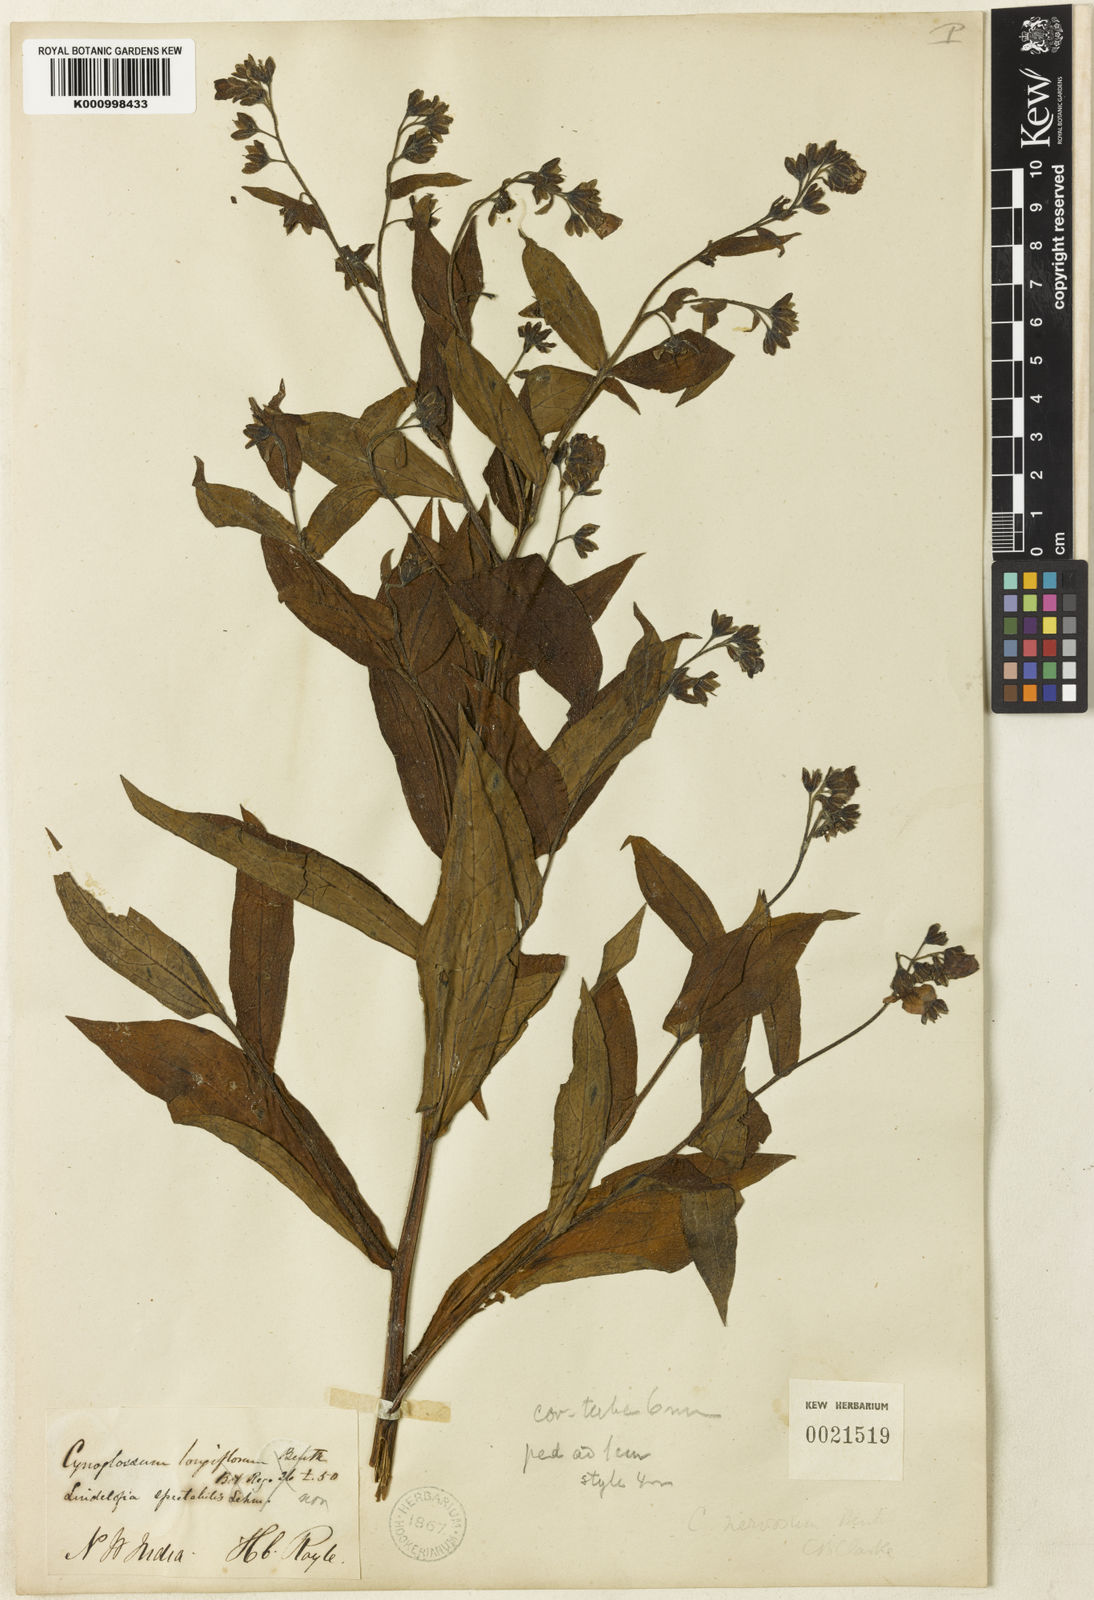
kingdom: Plantae
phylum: Tracheophyta
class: Magnoliopsida
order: Boraginales
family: Boraginaceae
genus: Lindelofia
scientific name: Lindelofia longiflora
